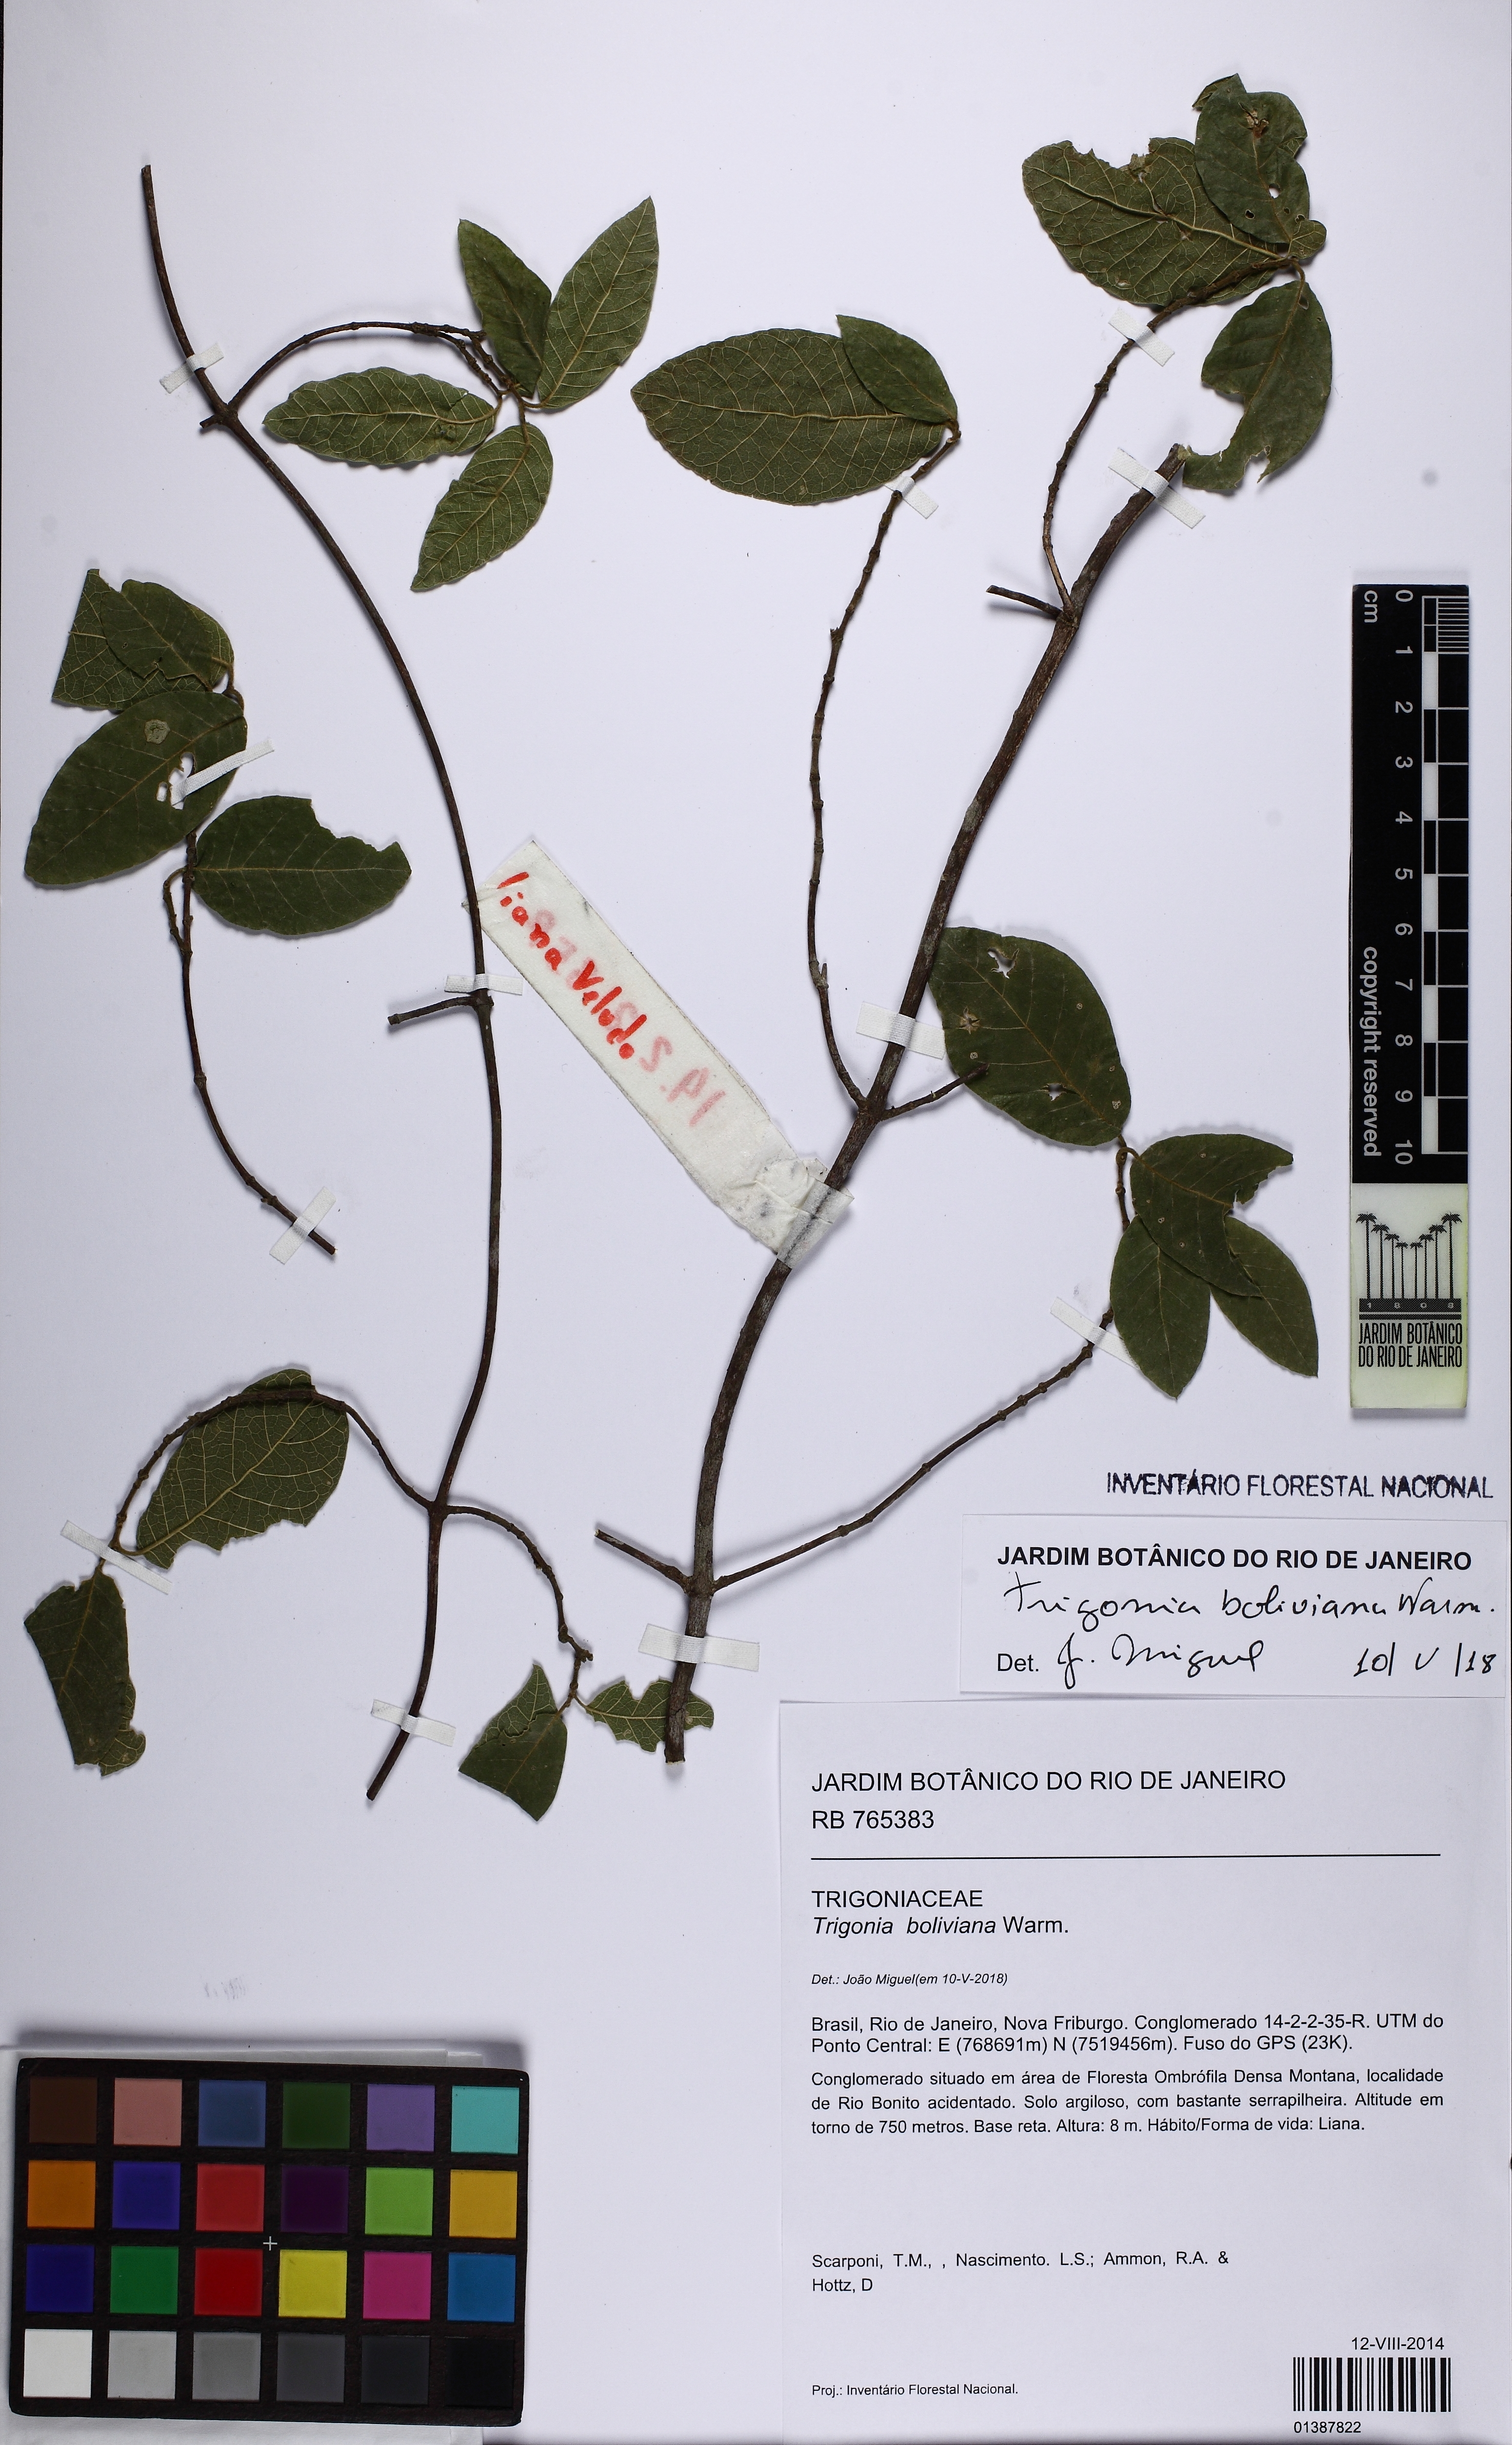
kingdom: Plantae
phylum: Tracheophyta
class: Magnoliopsida
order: Malpighiales
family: Trigoniaceae
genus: Trigonia
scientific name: Trigonia boliviana
